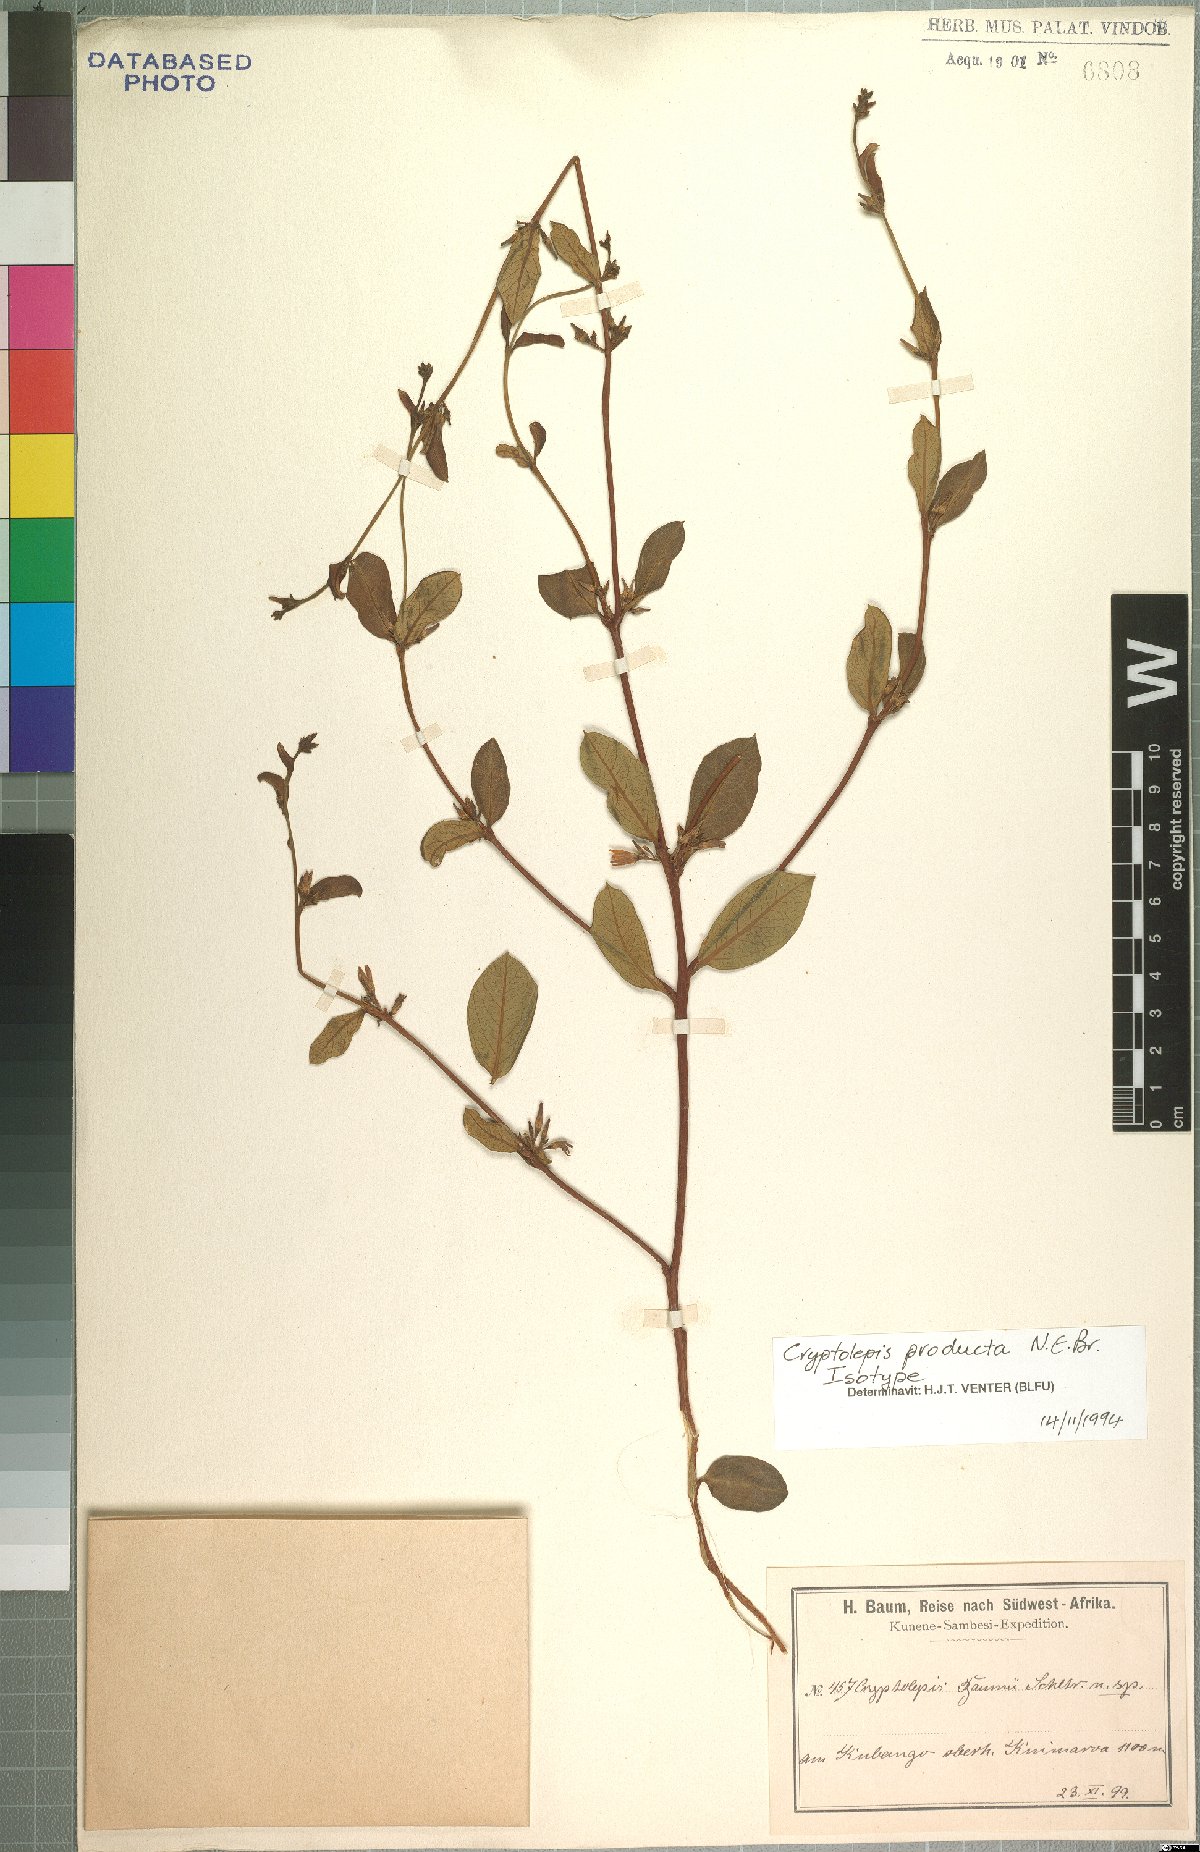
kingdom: Plantae
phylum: Tracheophyta
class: Magnoliopsida
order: Gentianales
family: Apocynaceae
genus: Cryptolepis
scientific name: Cryptolepis oblongifolia
